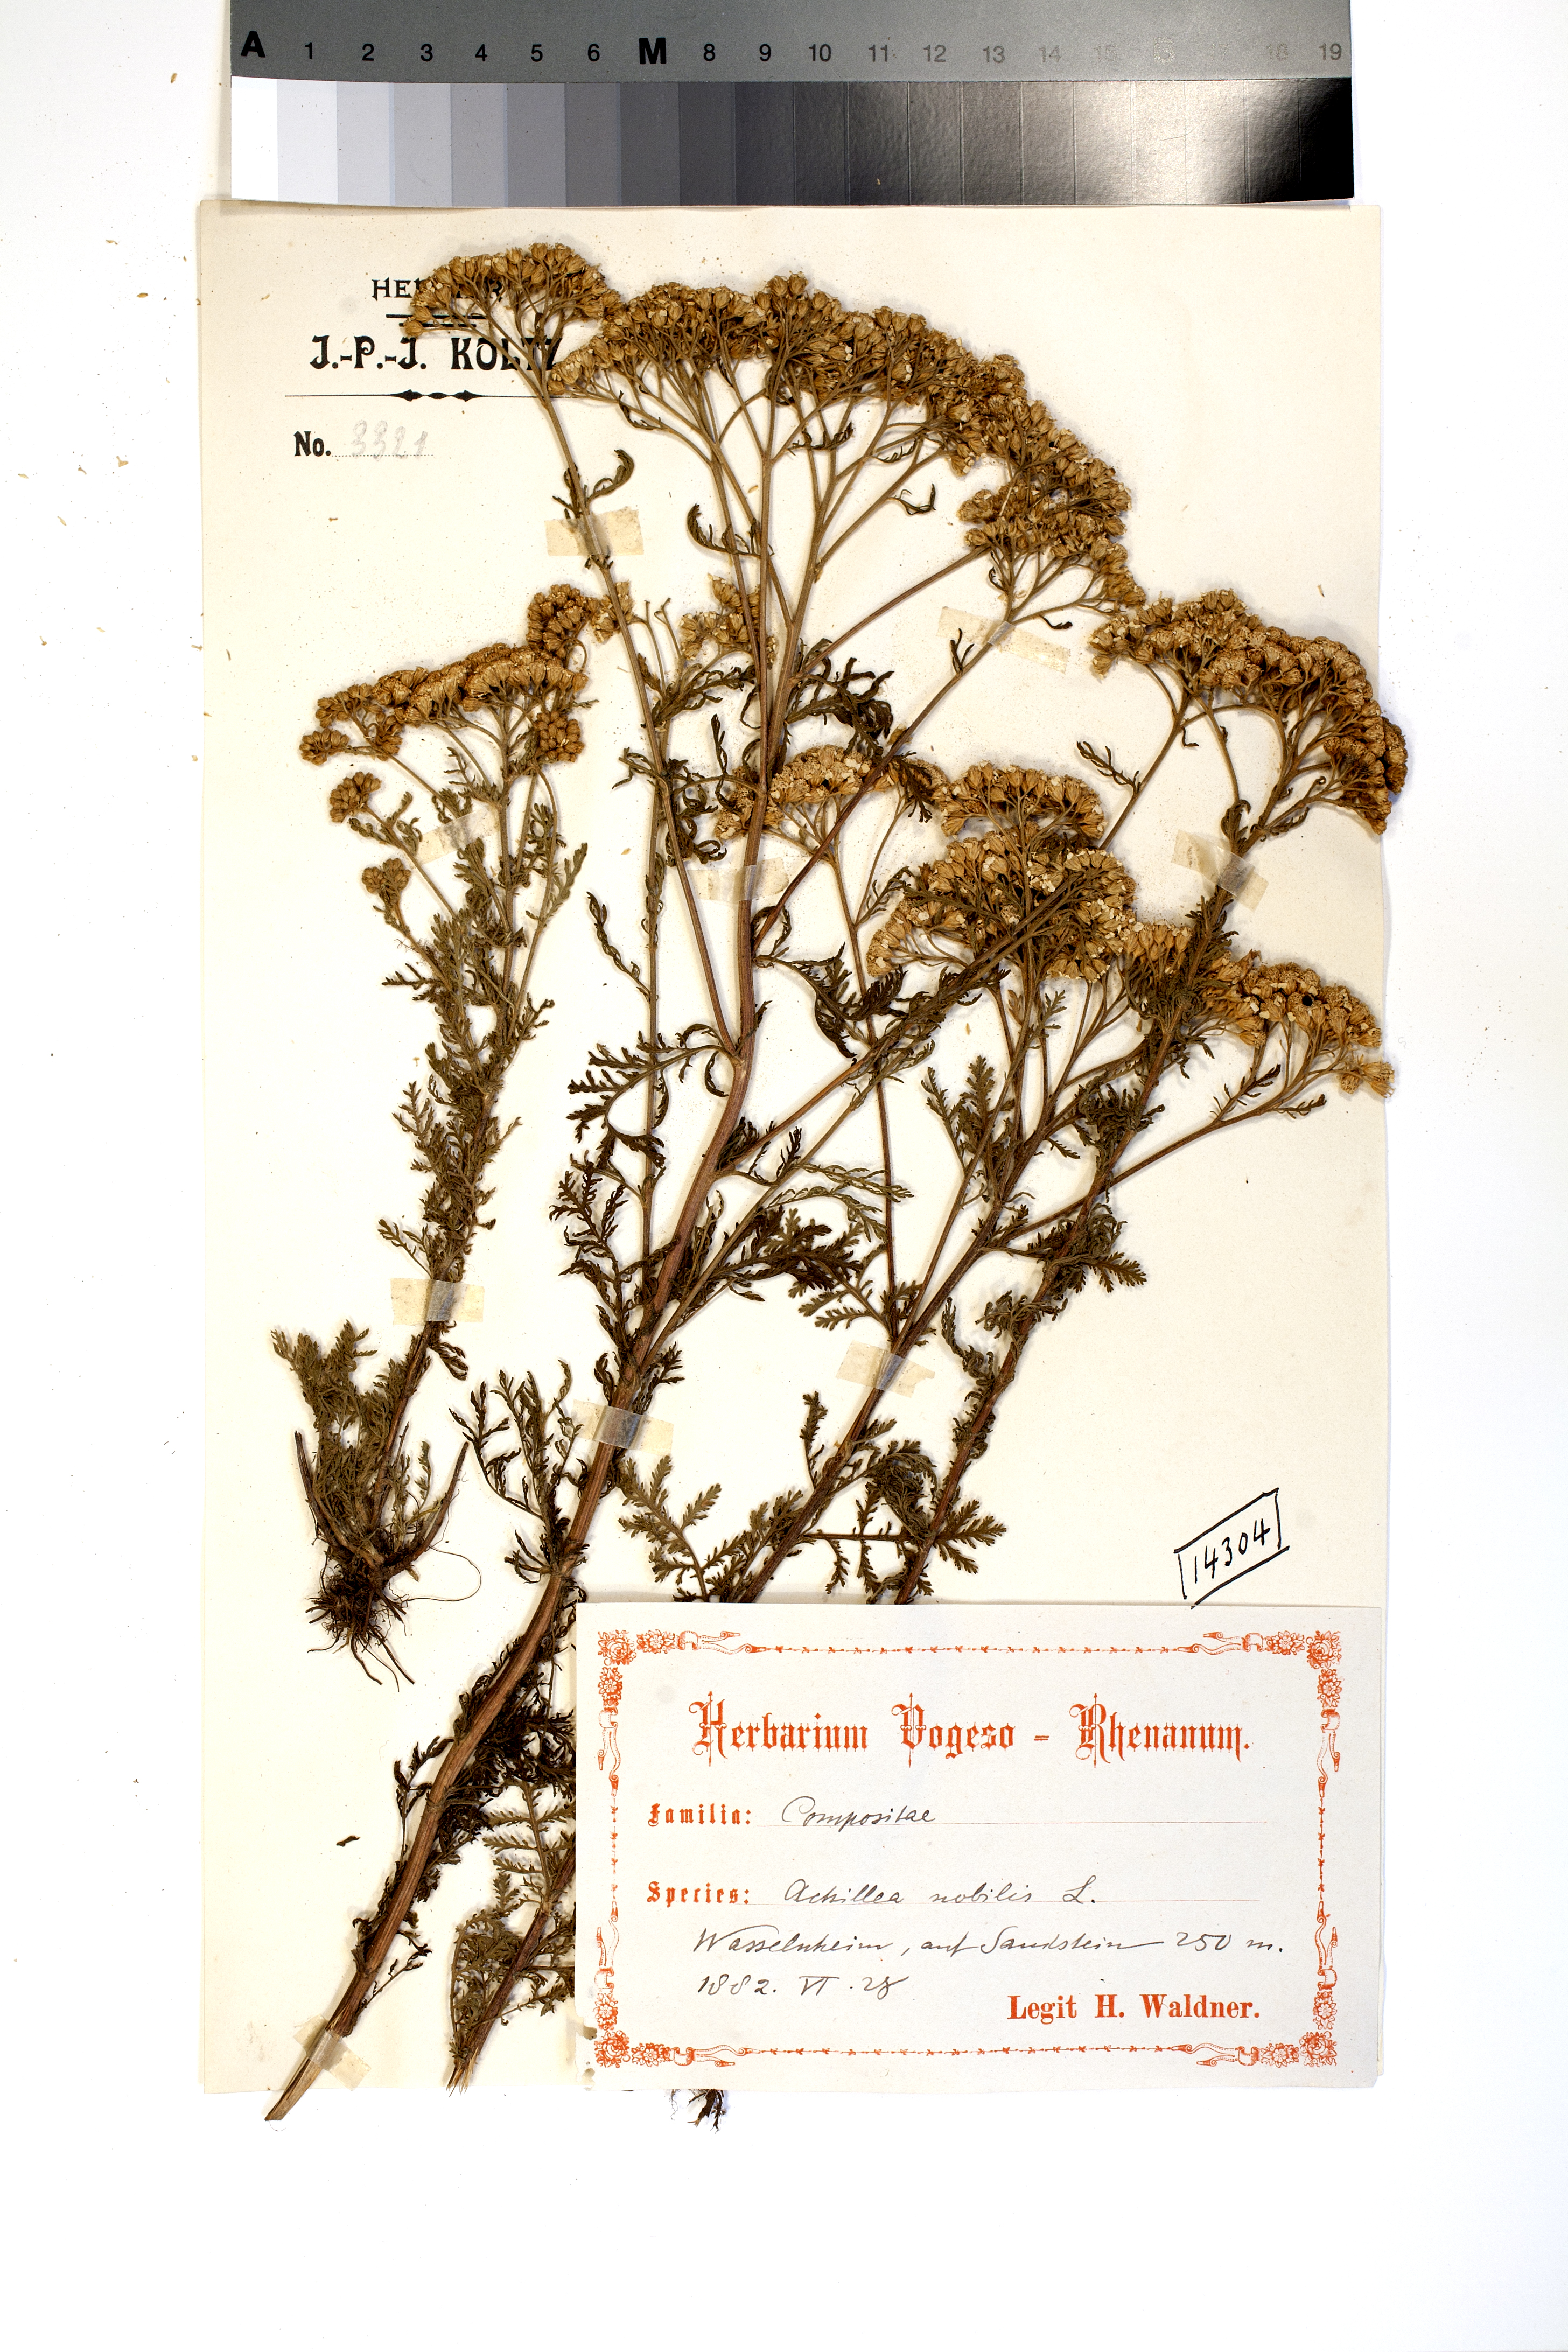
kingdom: Plantae
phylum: Tracheophyta
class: Magnoliopsida
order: Asterales
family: Asteraceae
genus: Achillea
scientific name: Achillea nobilis
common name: Noble yarrow
